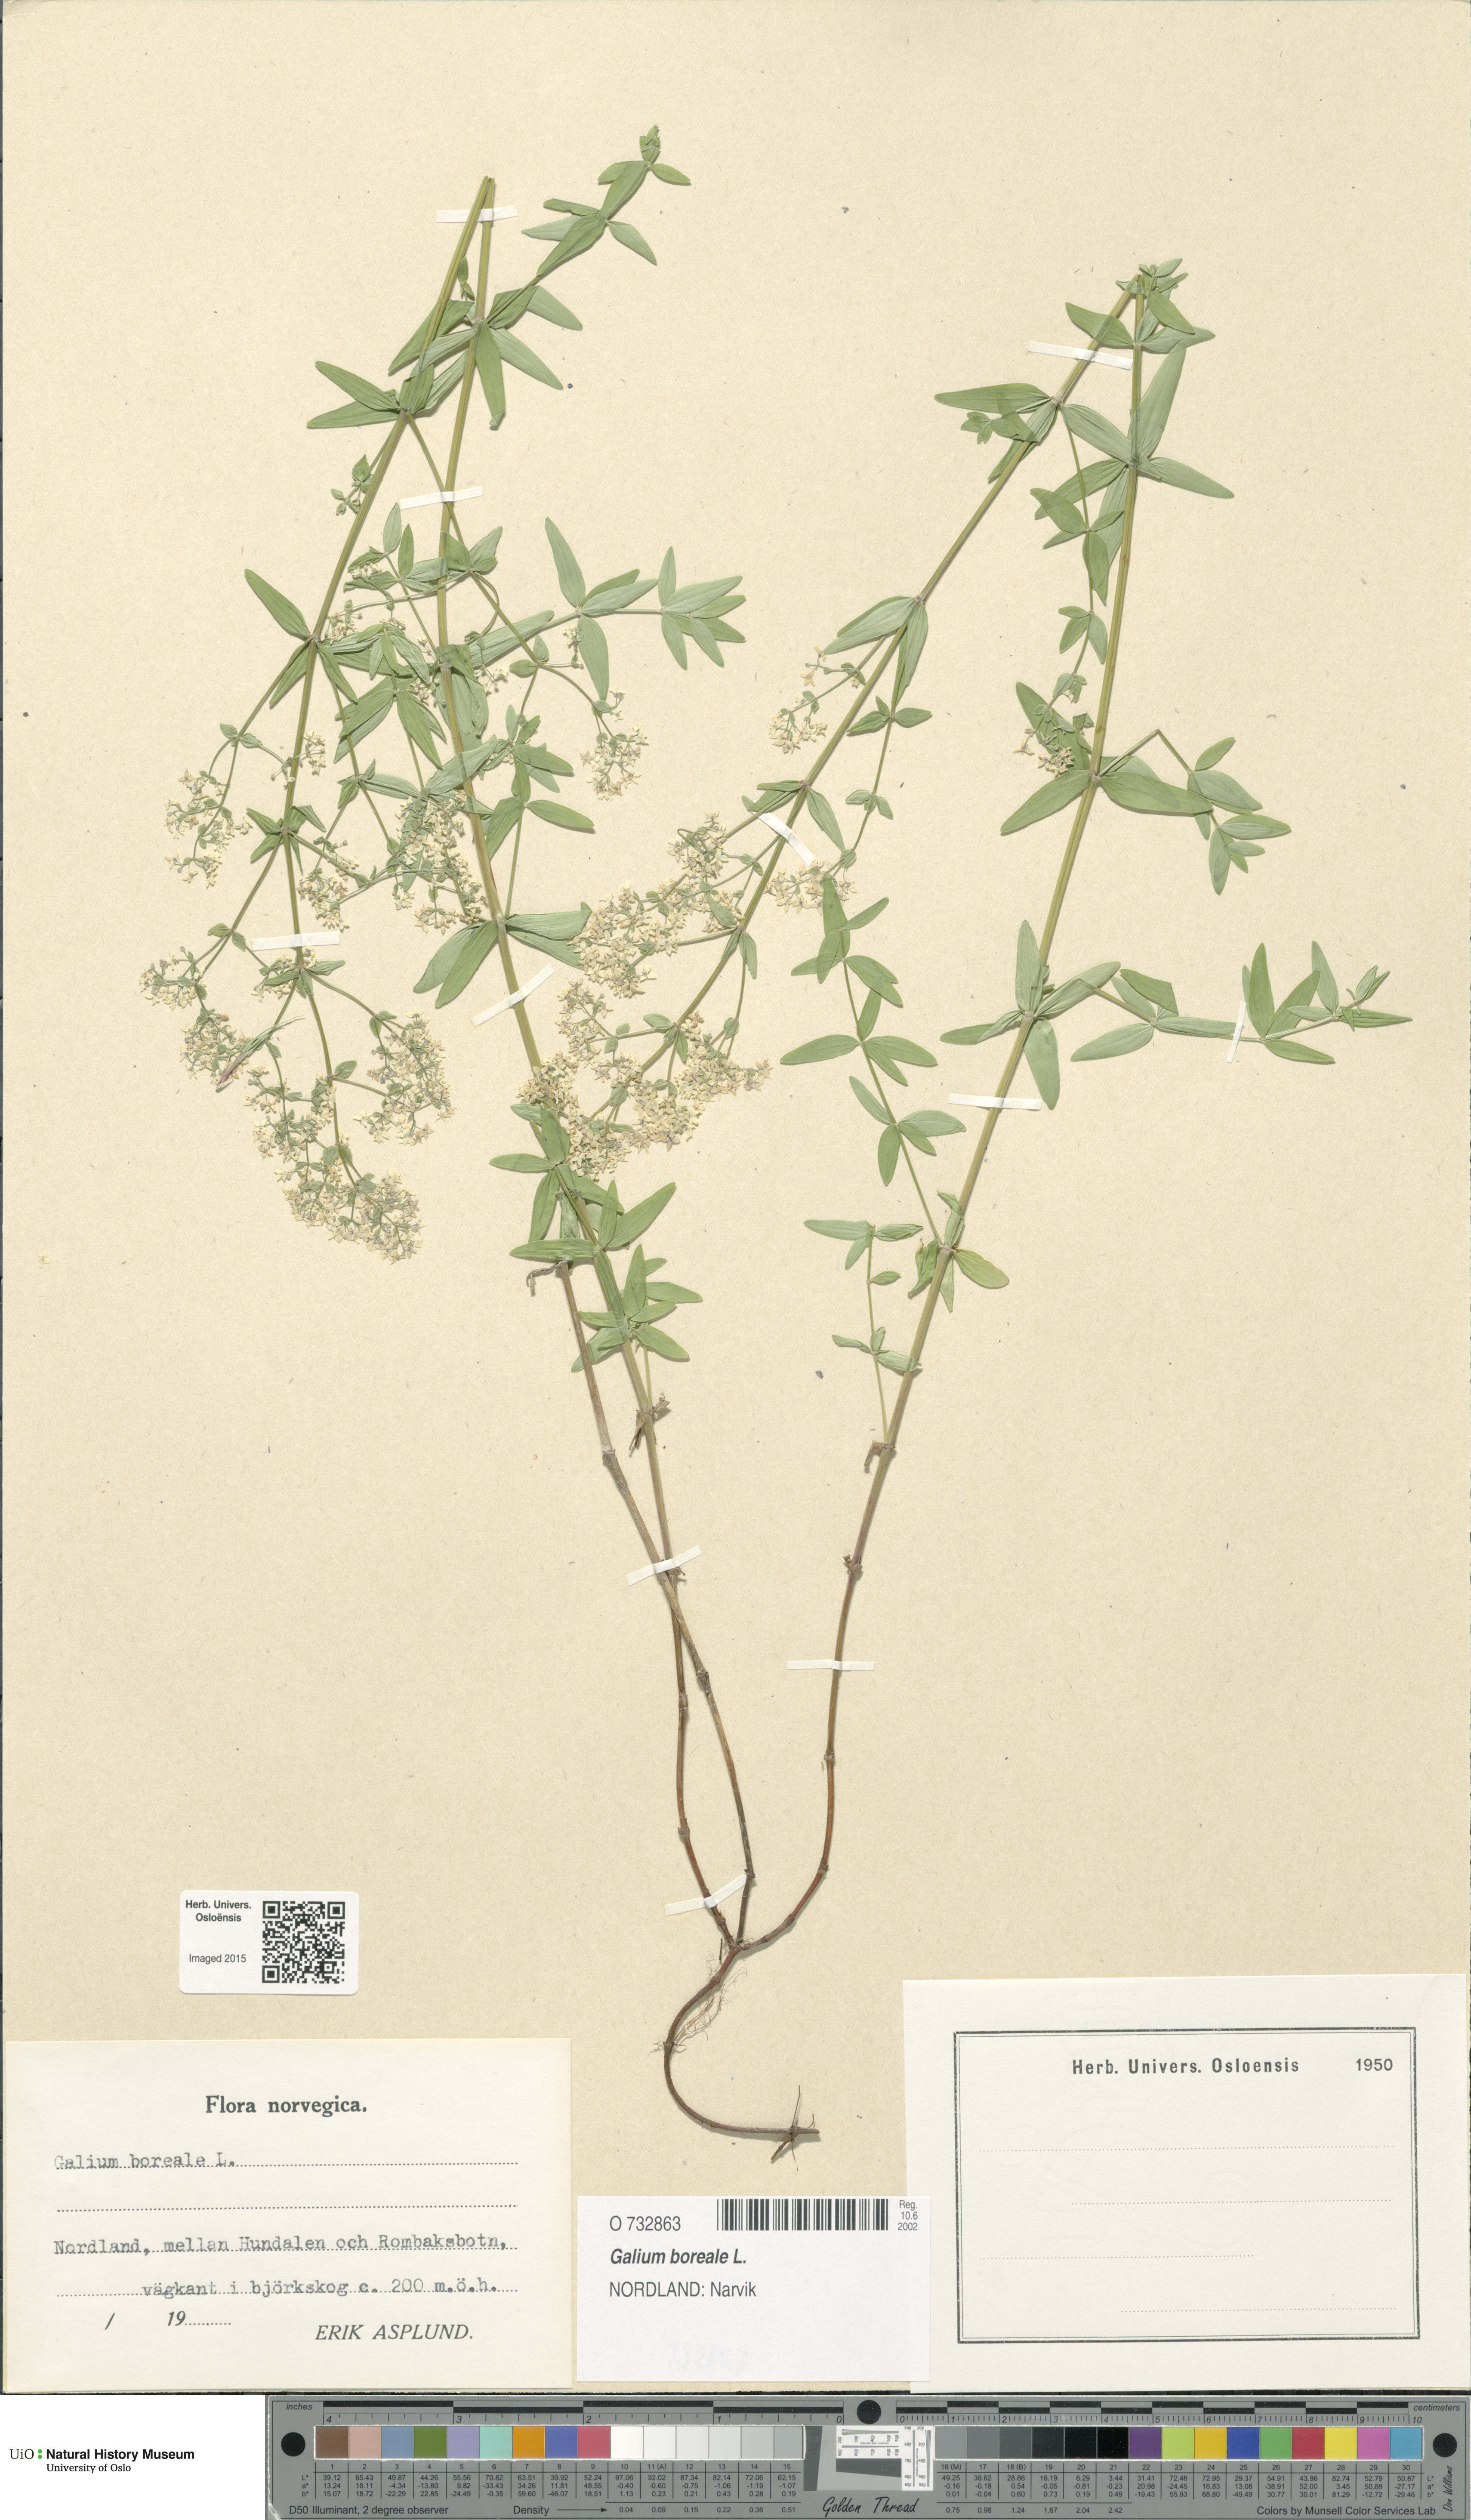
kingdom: Plantae
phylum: Tracheophyta
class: Magnoliopsida
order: Gentianales
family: Rubiaceae
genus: Galium
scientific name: Galium boreale
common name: Northern bedstraw
